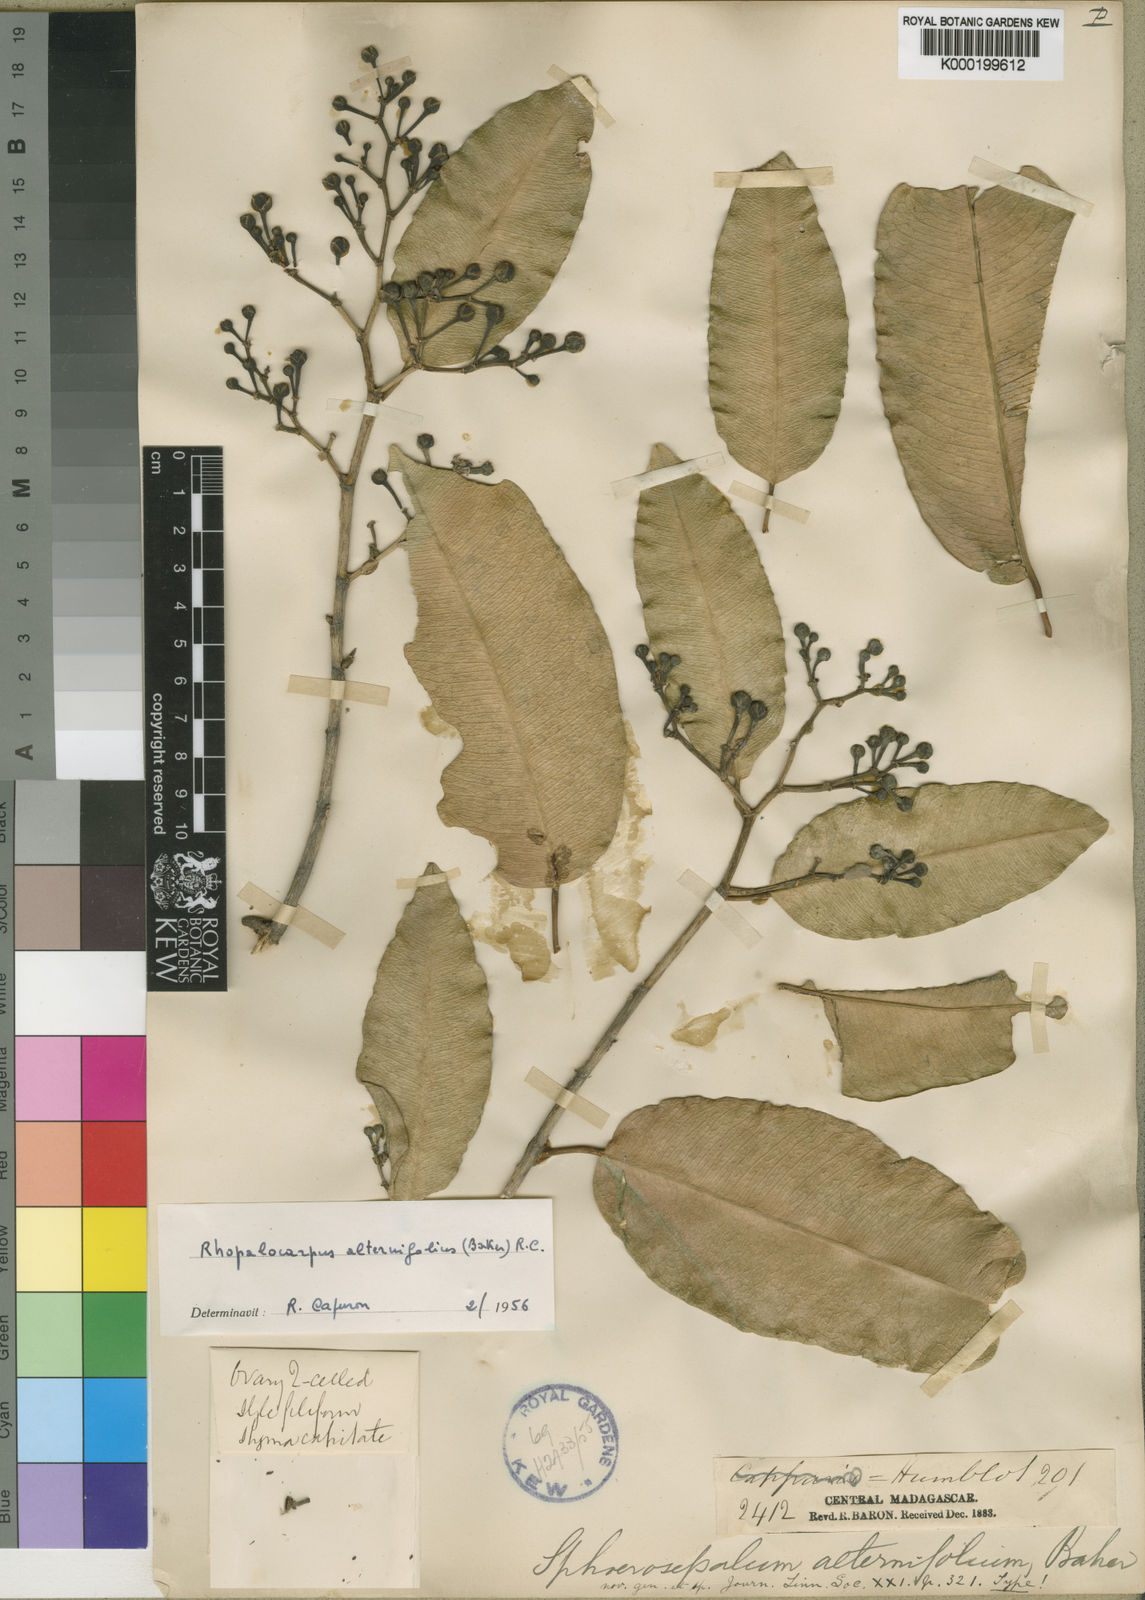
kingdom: Plantae
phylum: Tracheophyta
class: Magnoliopsida
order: Malvales
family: Sphaerosepalaceae
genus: Rhopalocarpus
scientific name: Rhopalocarpus alternifolius
